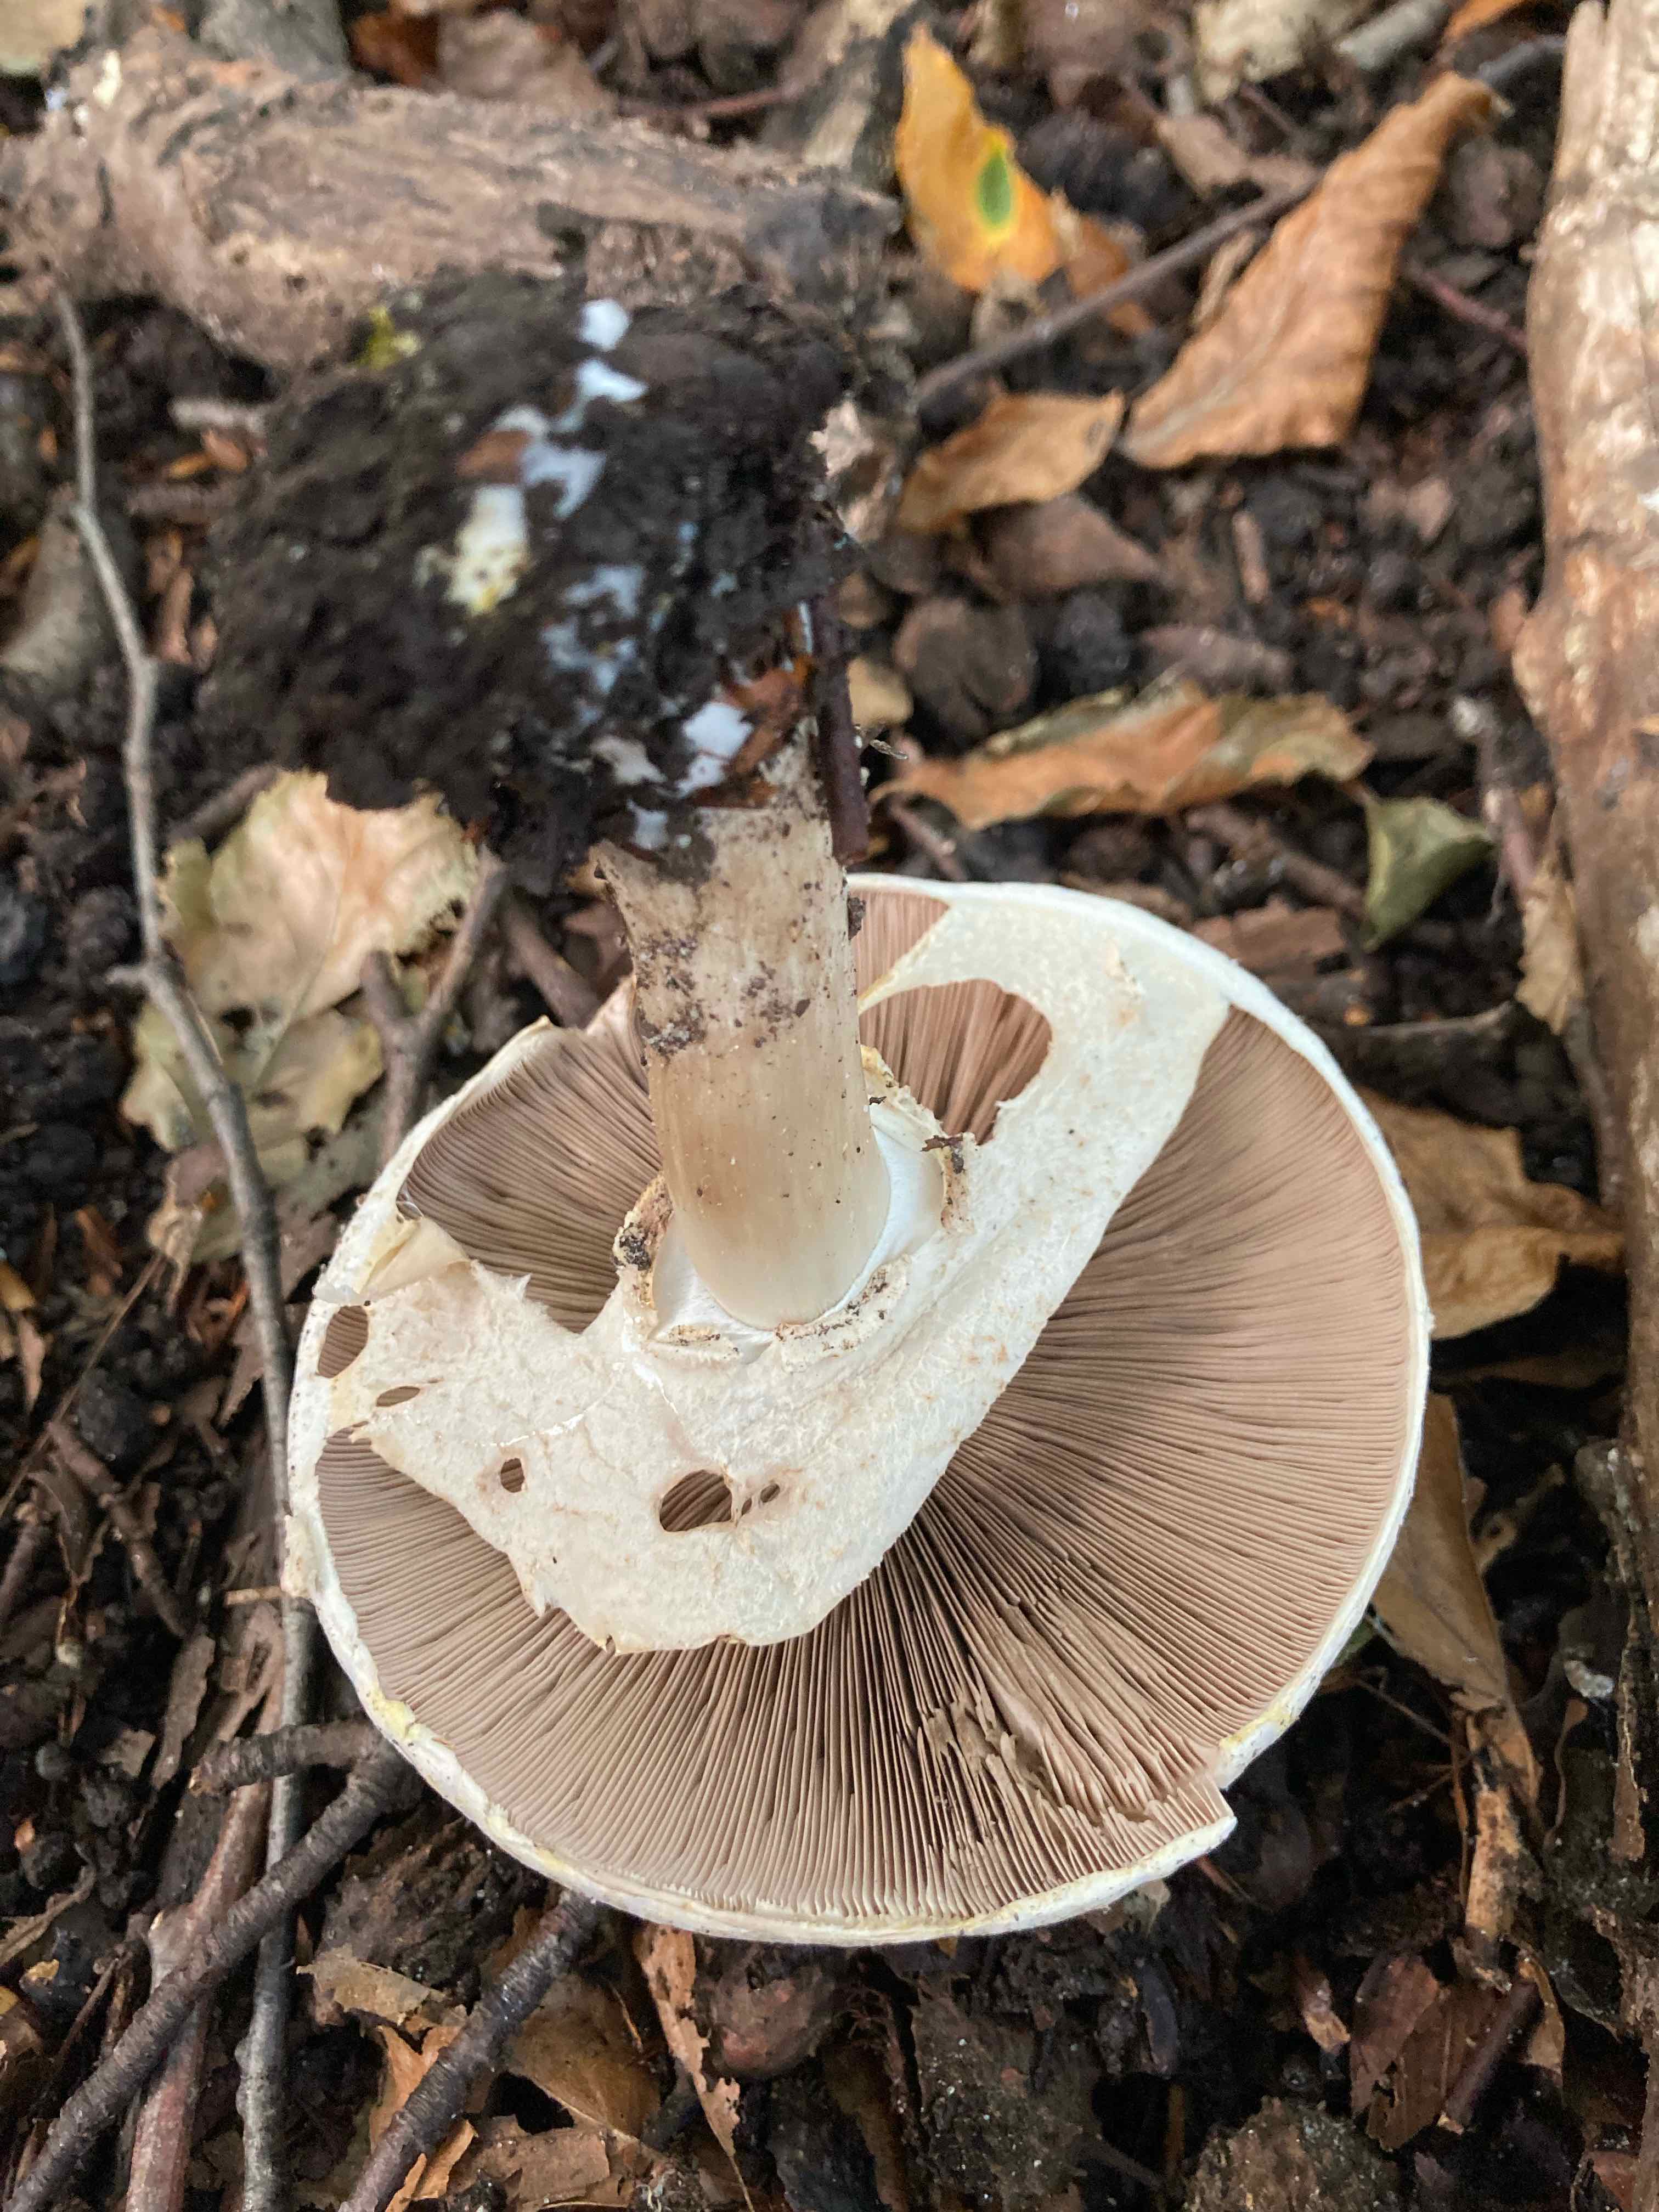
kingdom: Fungi
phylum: Basidiomycota
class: Agaricomycetes
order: Agaricales
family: Agaricaceae
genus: Agaricus
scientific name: Agaricus xanthodermus
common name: karbol-champignon
